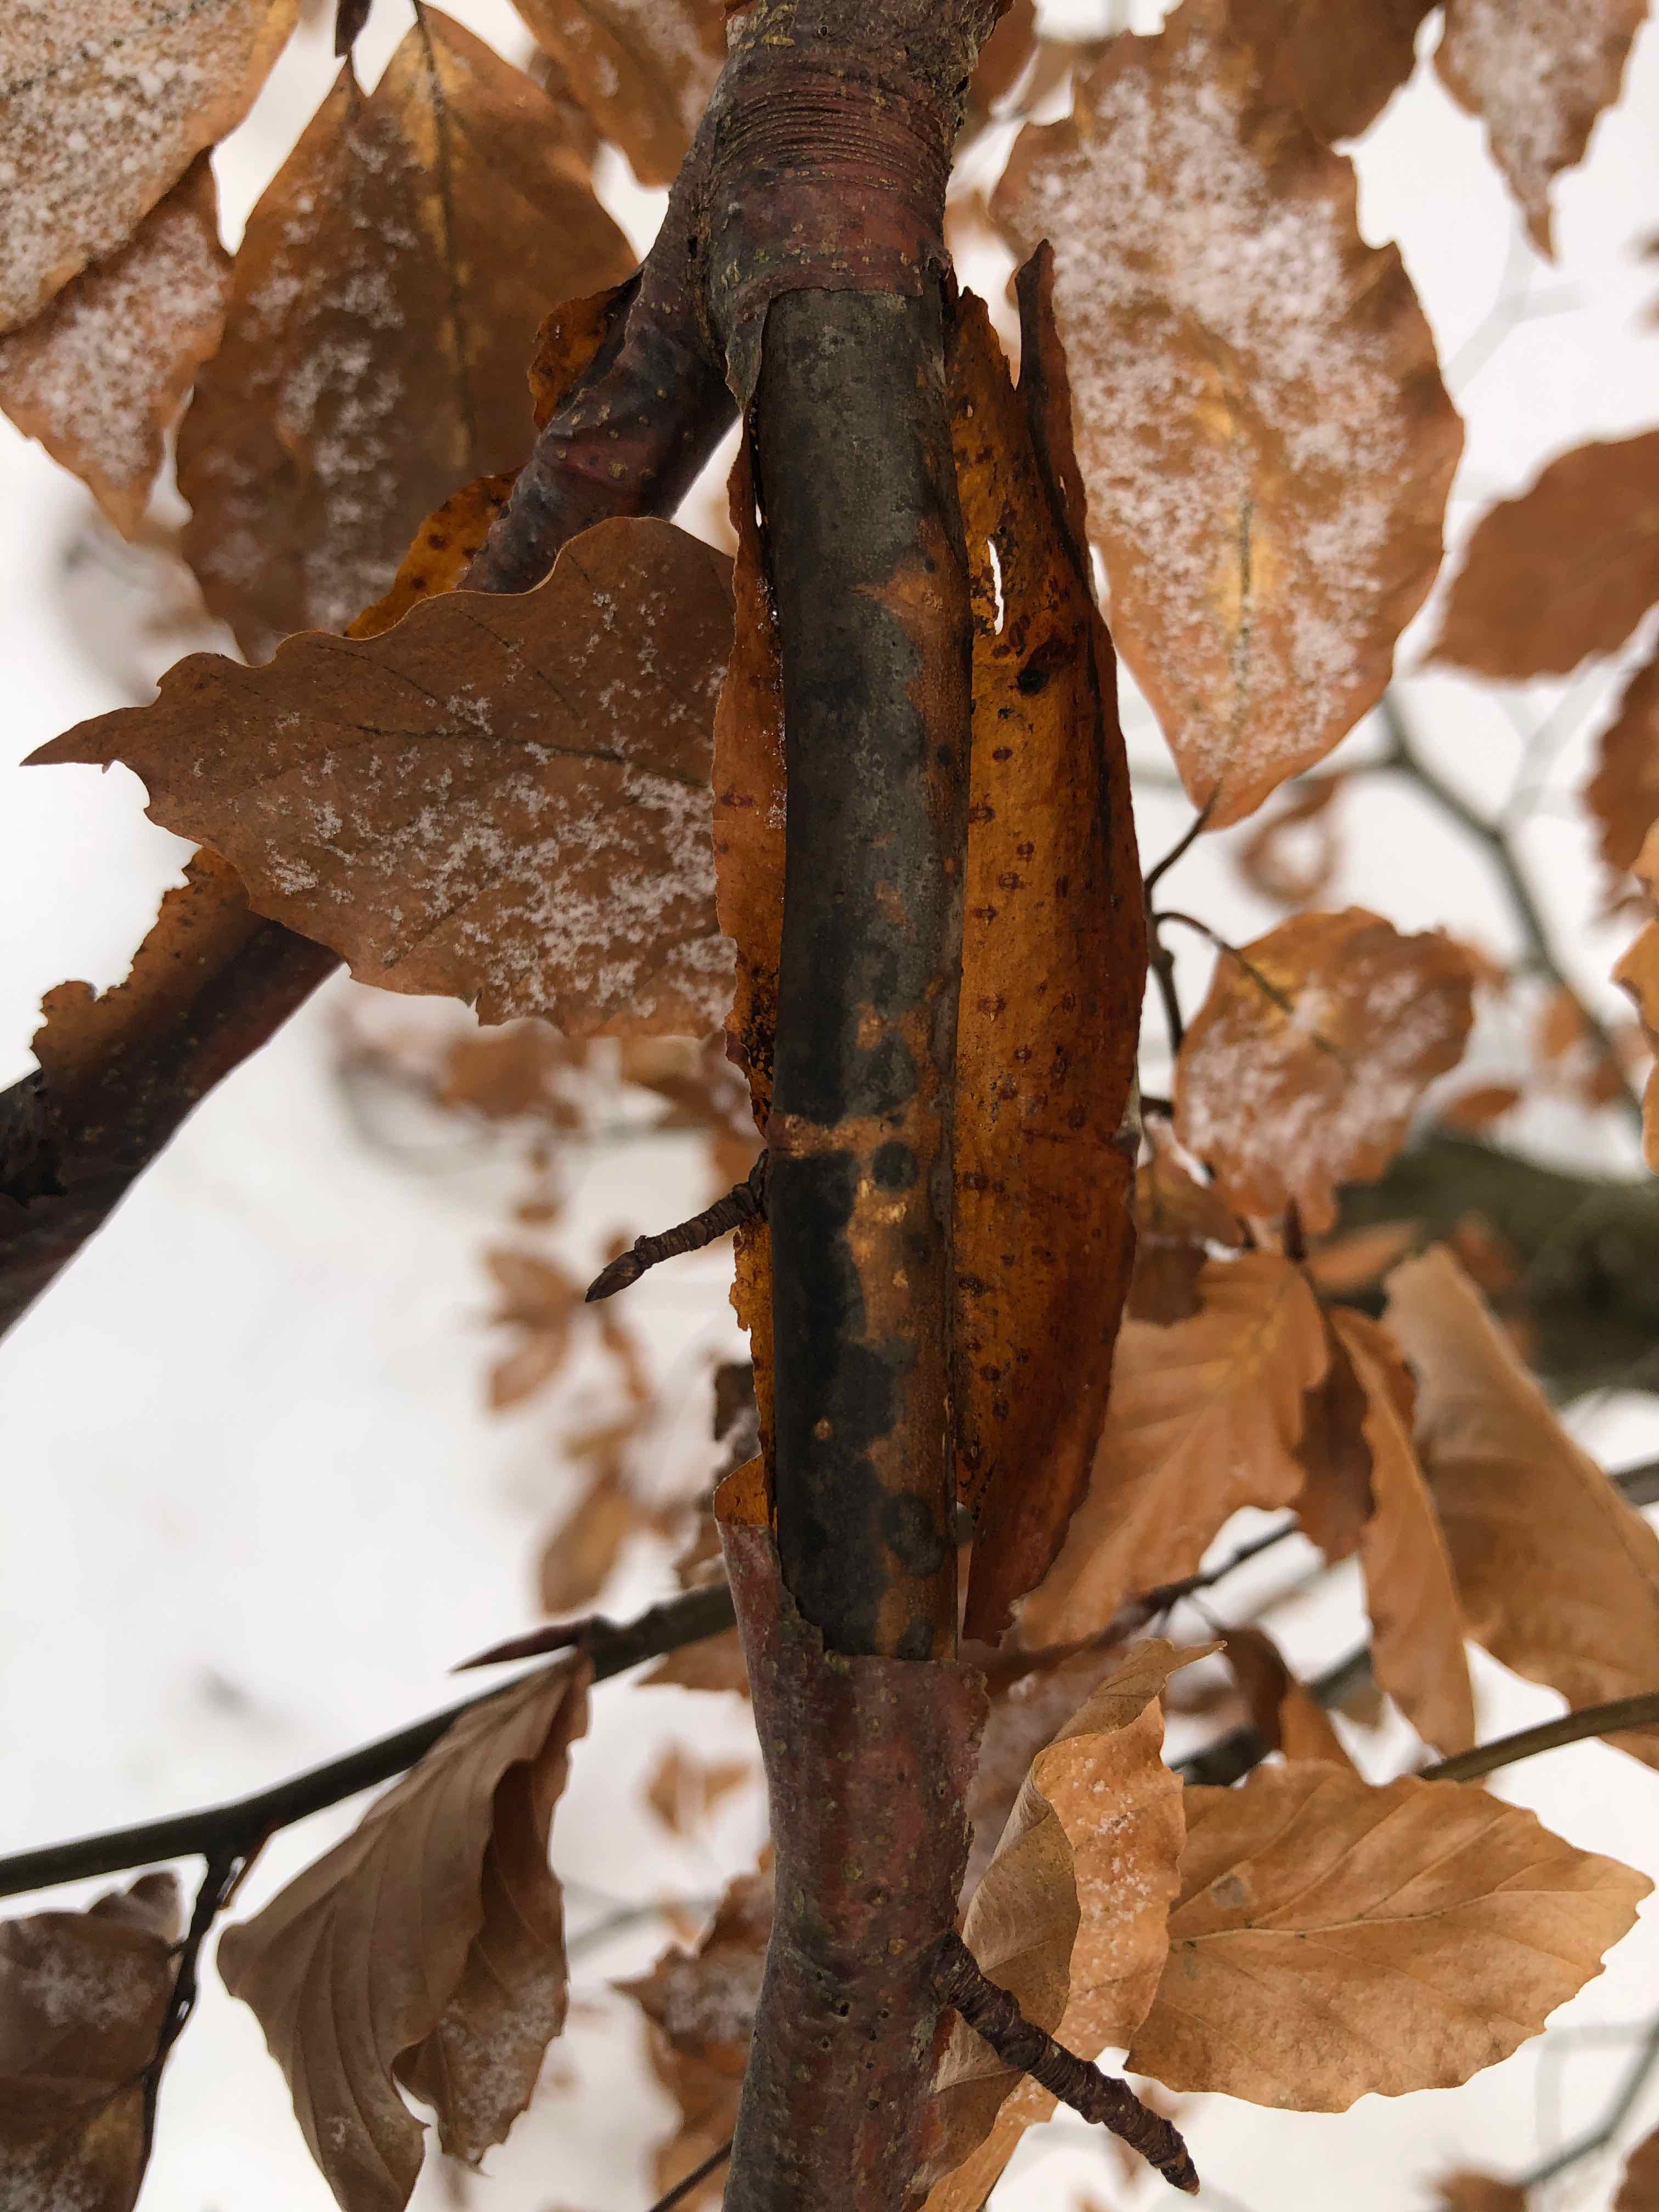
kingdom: Fungi
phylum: Ascomycota
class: Sordariomycetes
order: Xylariales
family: Diatrypaceae
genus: Diatrype
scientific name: Diatrype decorticata
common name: barksprænger-kulskorpe
